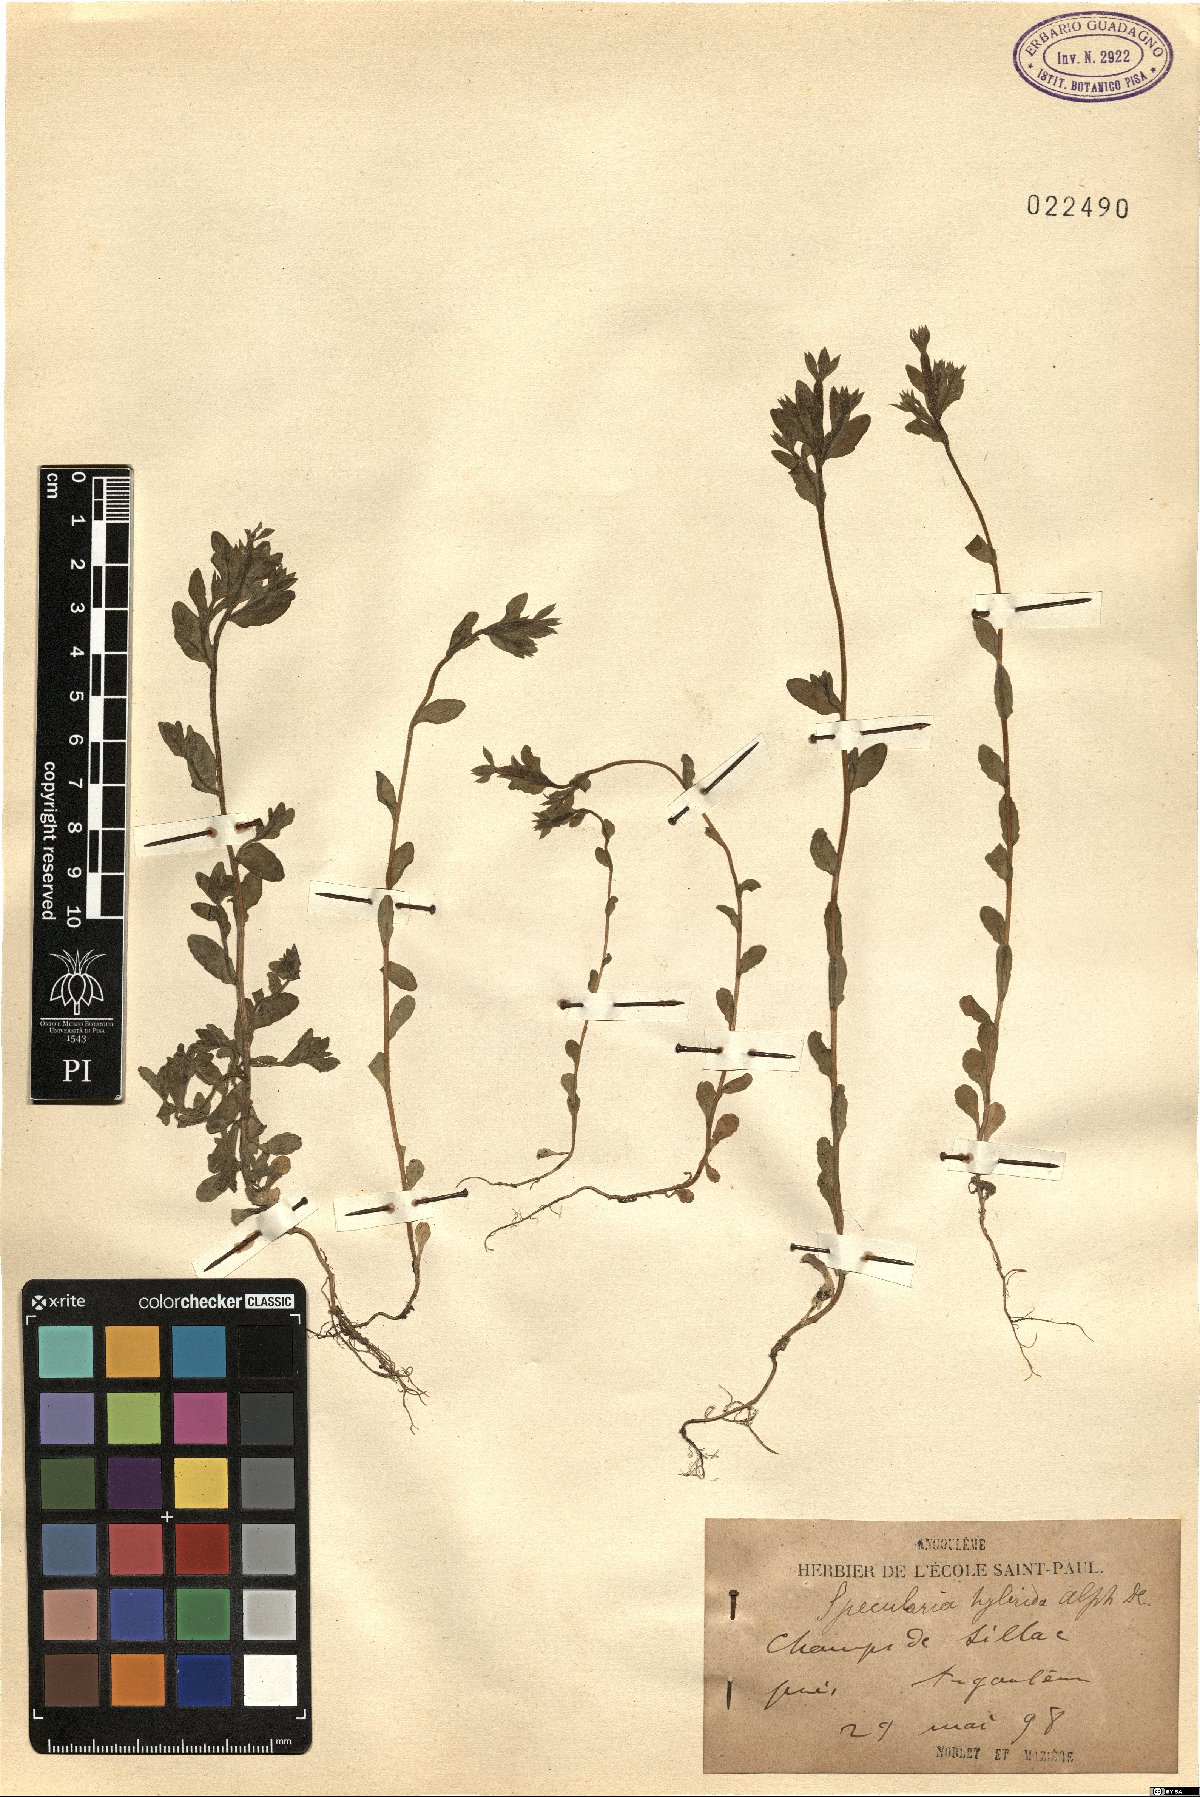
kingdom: Plantae
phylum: Tracheophyta
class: Magnoliopsida
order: Asterales
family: Campanulaceae
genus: Legousia
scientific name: Legousia hybrida
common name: Venus's-looking-glass
